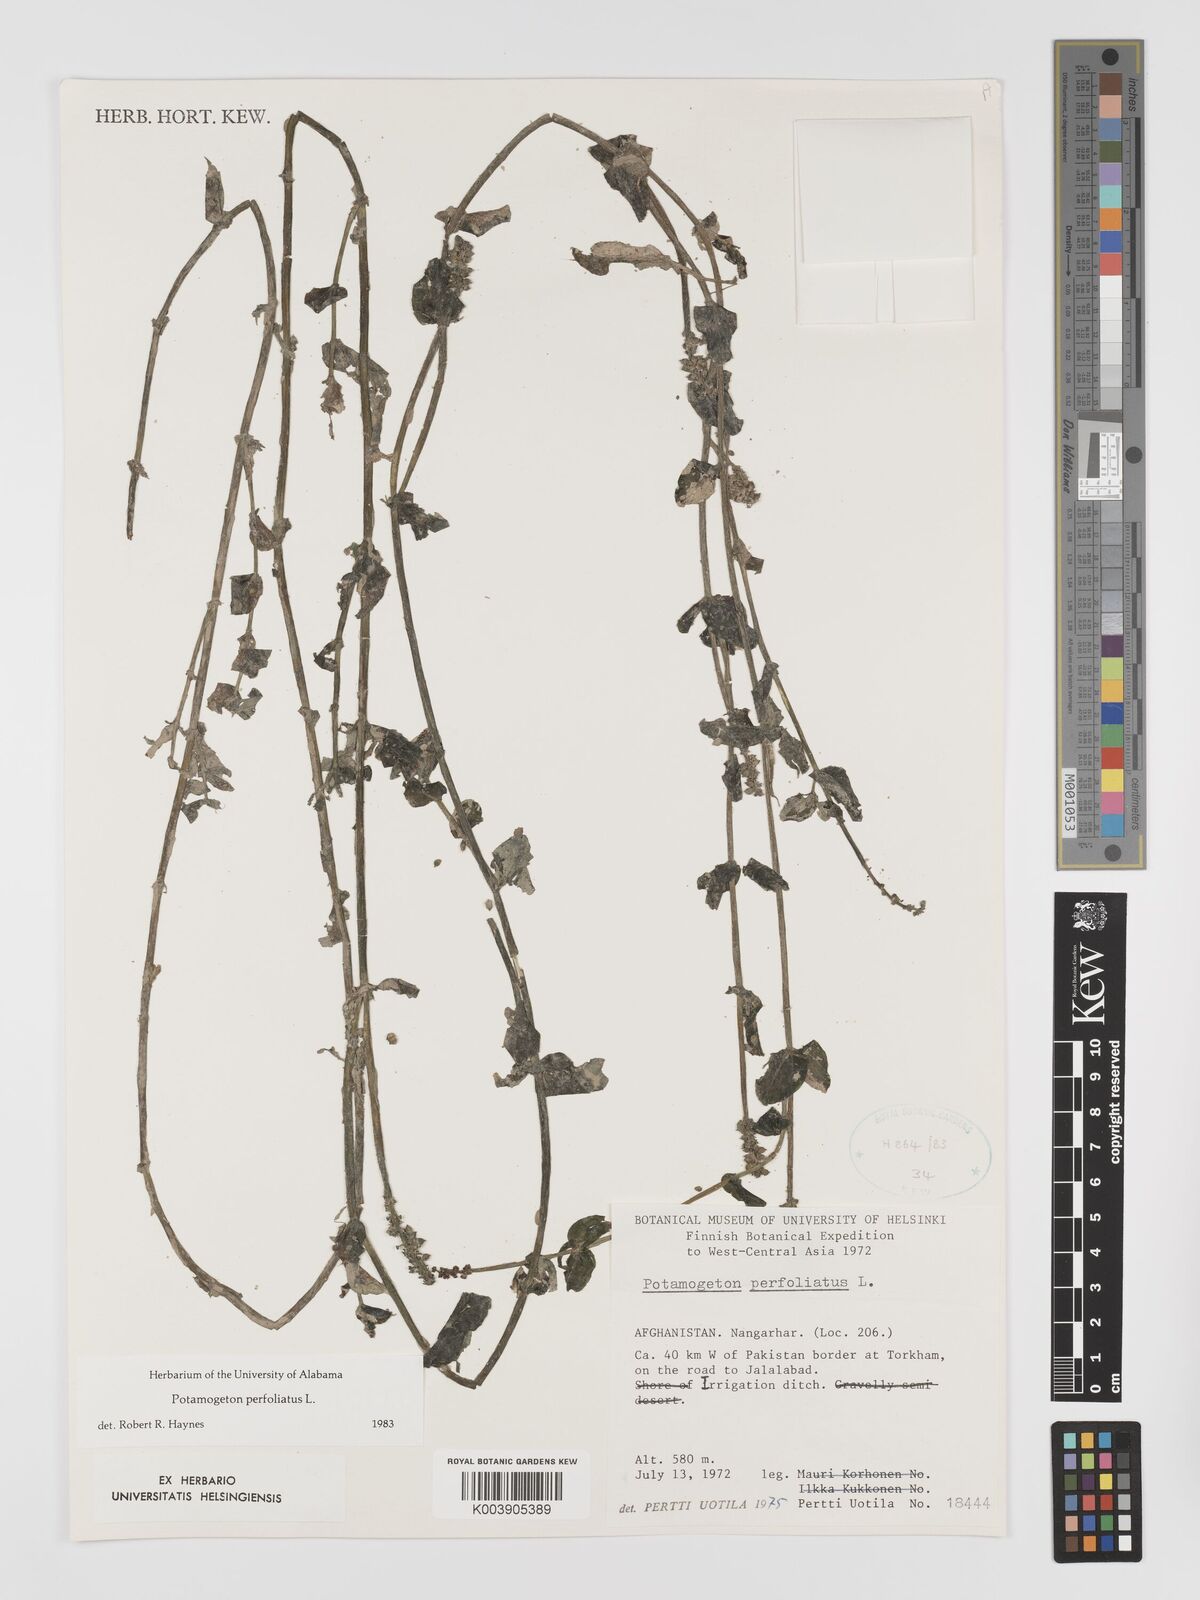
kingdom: Plantae
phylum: Tracheophyta
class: Liliopsida
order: Alismatales
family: Potamogetonaceae
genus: Potamogeton
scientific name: Potamogeton perfoliatus
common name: Perfoliate pondweed
